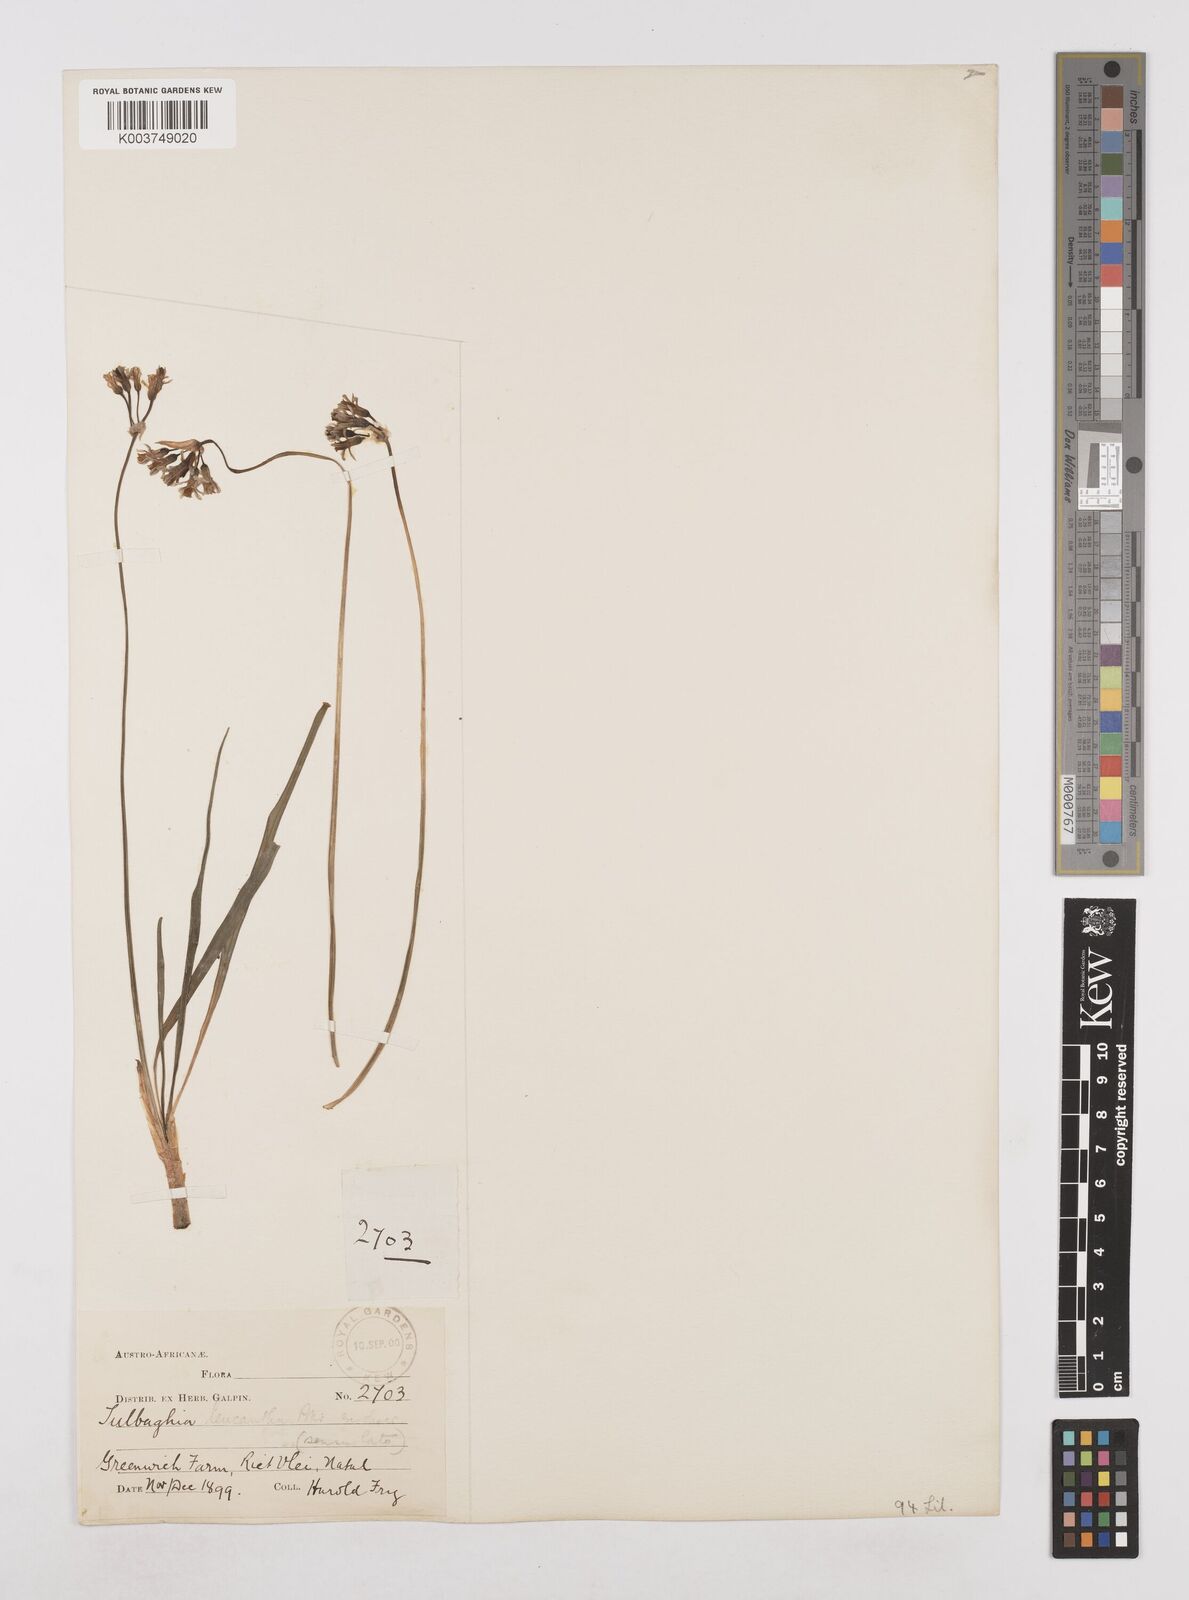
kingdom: Plantae
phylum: Tracheophyta
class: Liliopsida
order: Asparagales
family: Amaryllidaceae
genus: Tulbaghia
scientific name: Tulbaghia leucantha
